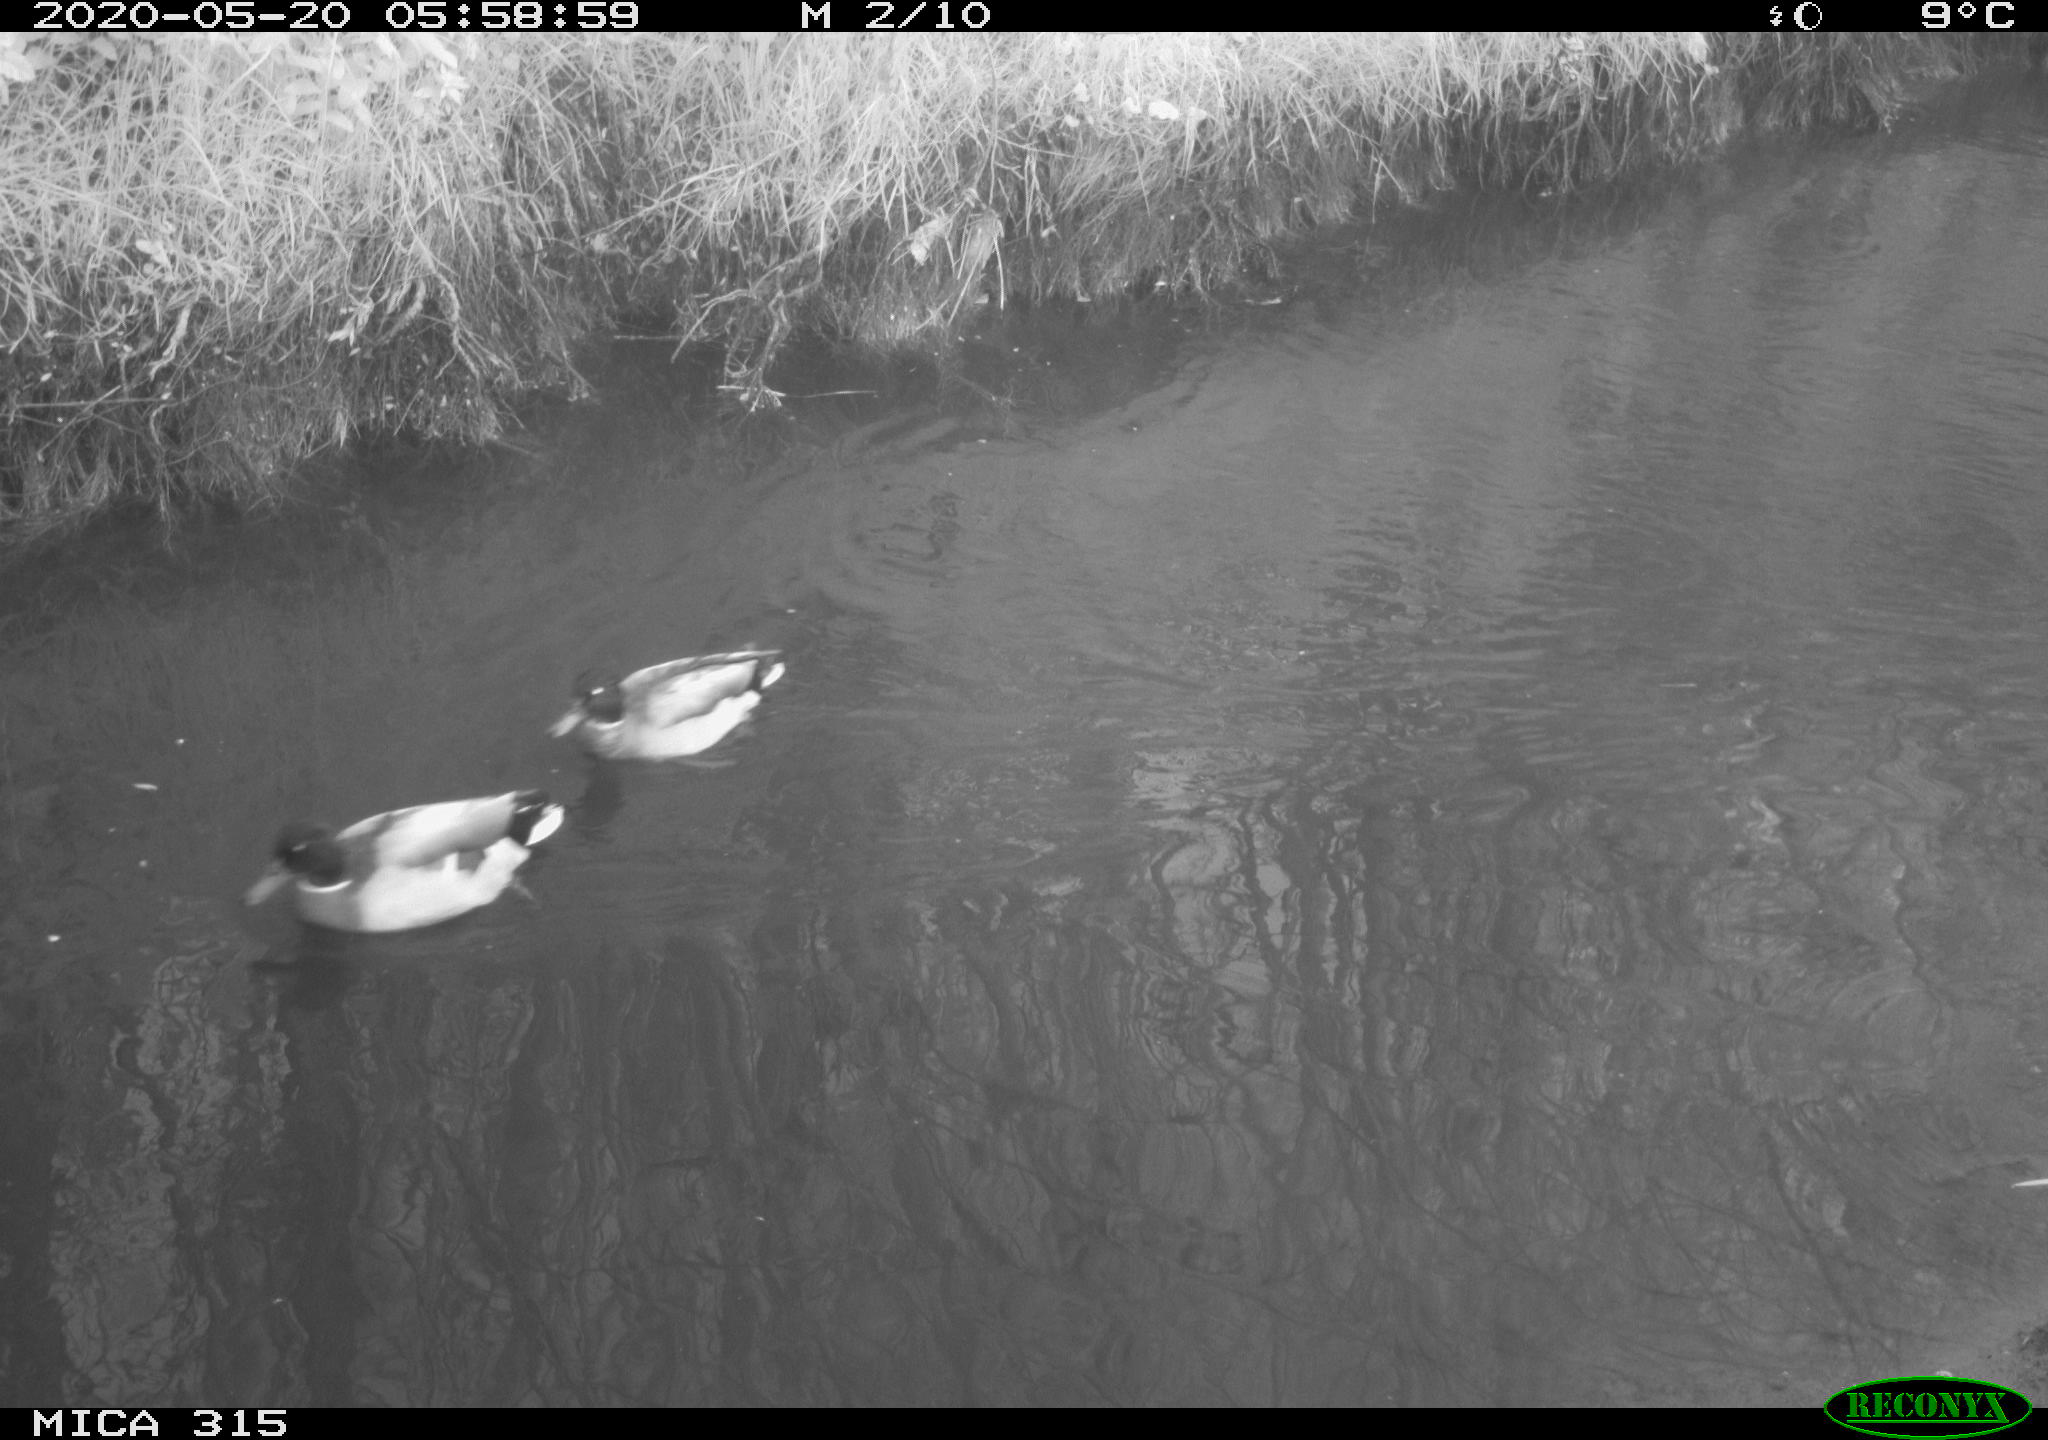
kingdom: Animalia
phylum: Chordata
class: Aves
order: Anseriformes
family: Anatidae
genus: Anas
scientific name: Anas platyrhynchos
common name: Mallard
